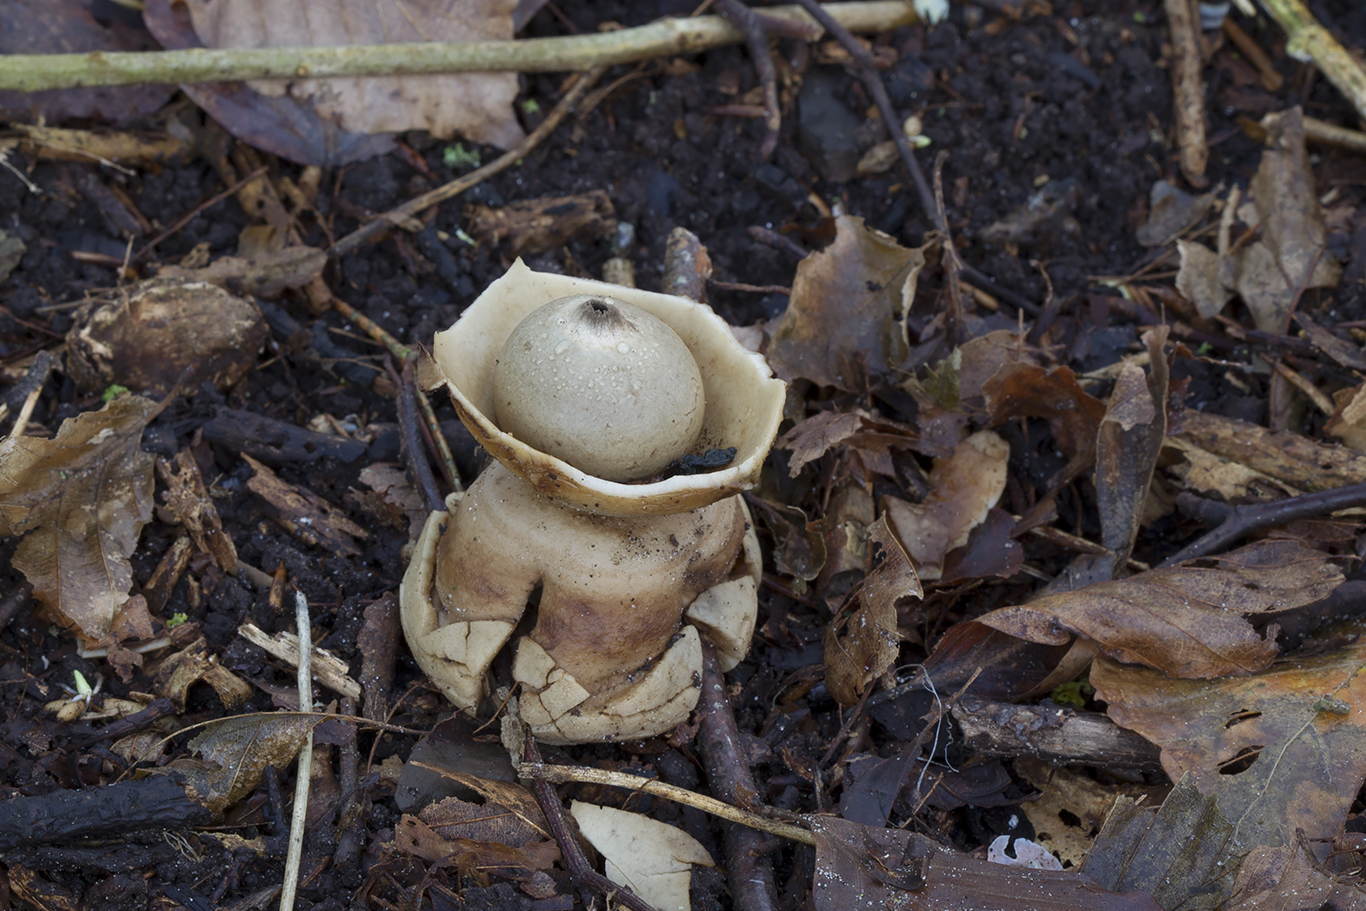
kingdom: Fungi
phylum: Basidiomycota
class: Agaricomycetes
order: Geastrales
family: Geastraceae
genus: Geastrum
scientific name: Geastrum michelianum
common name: kødet stjernebold
